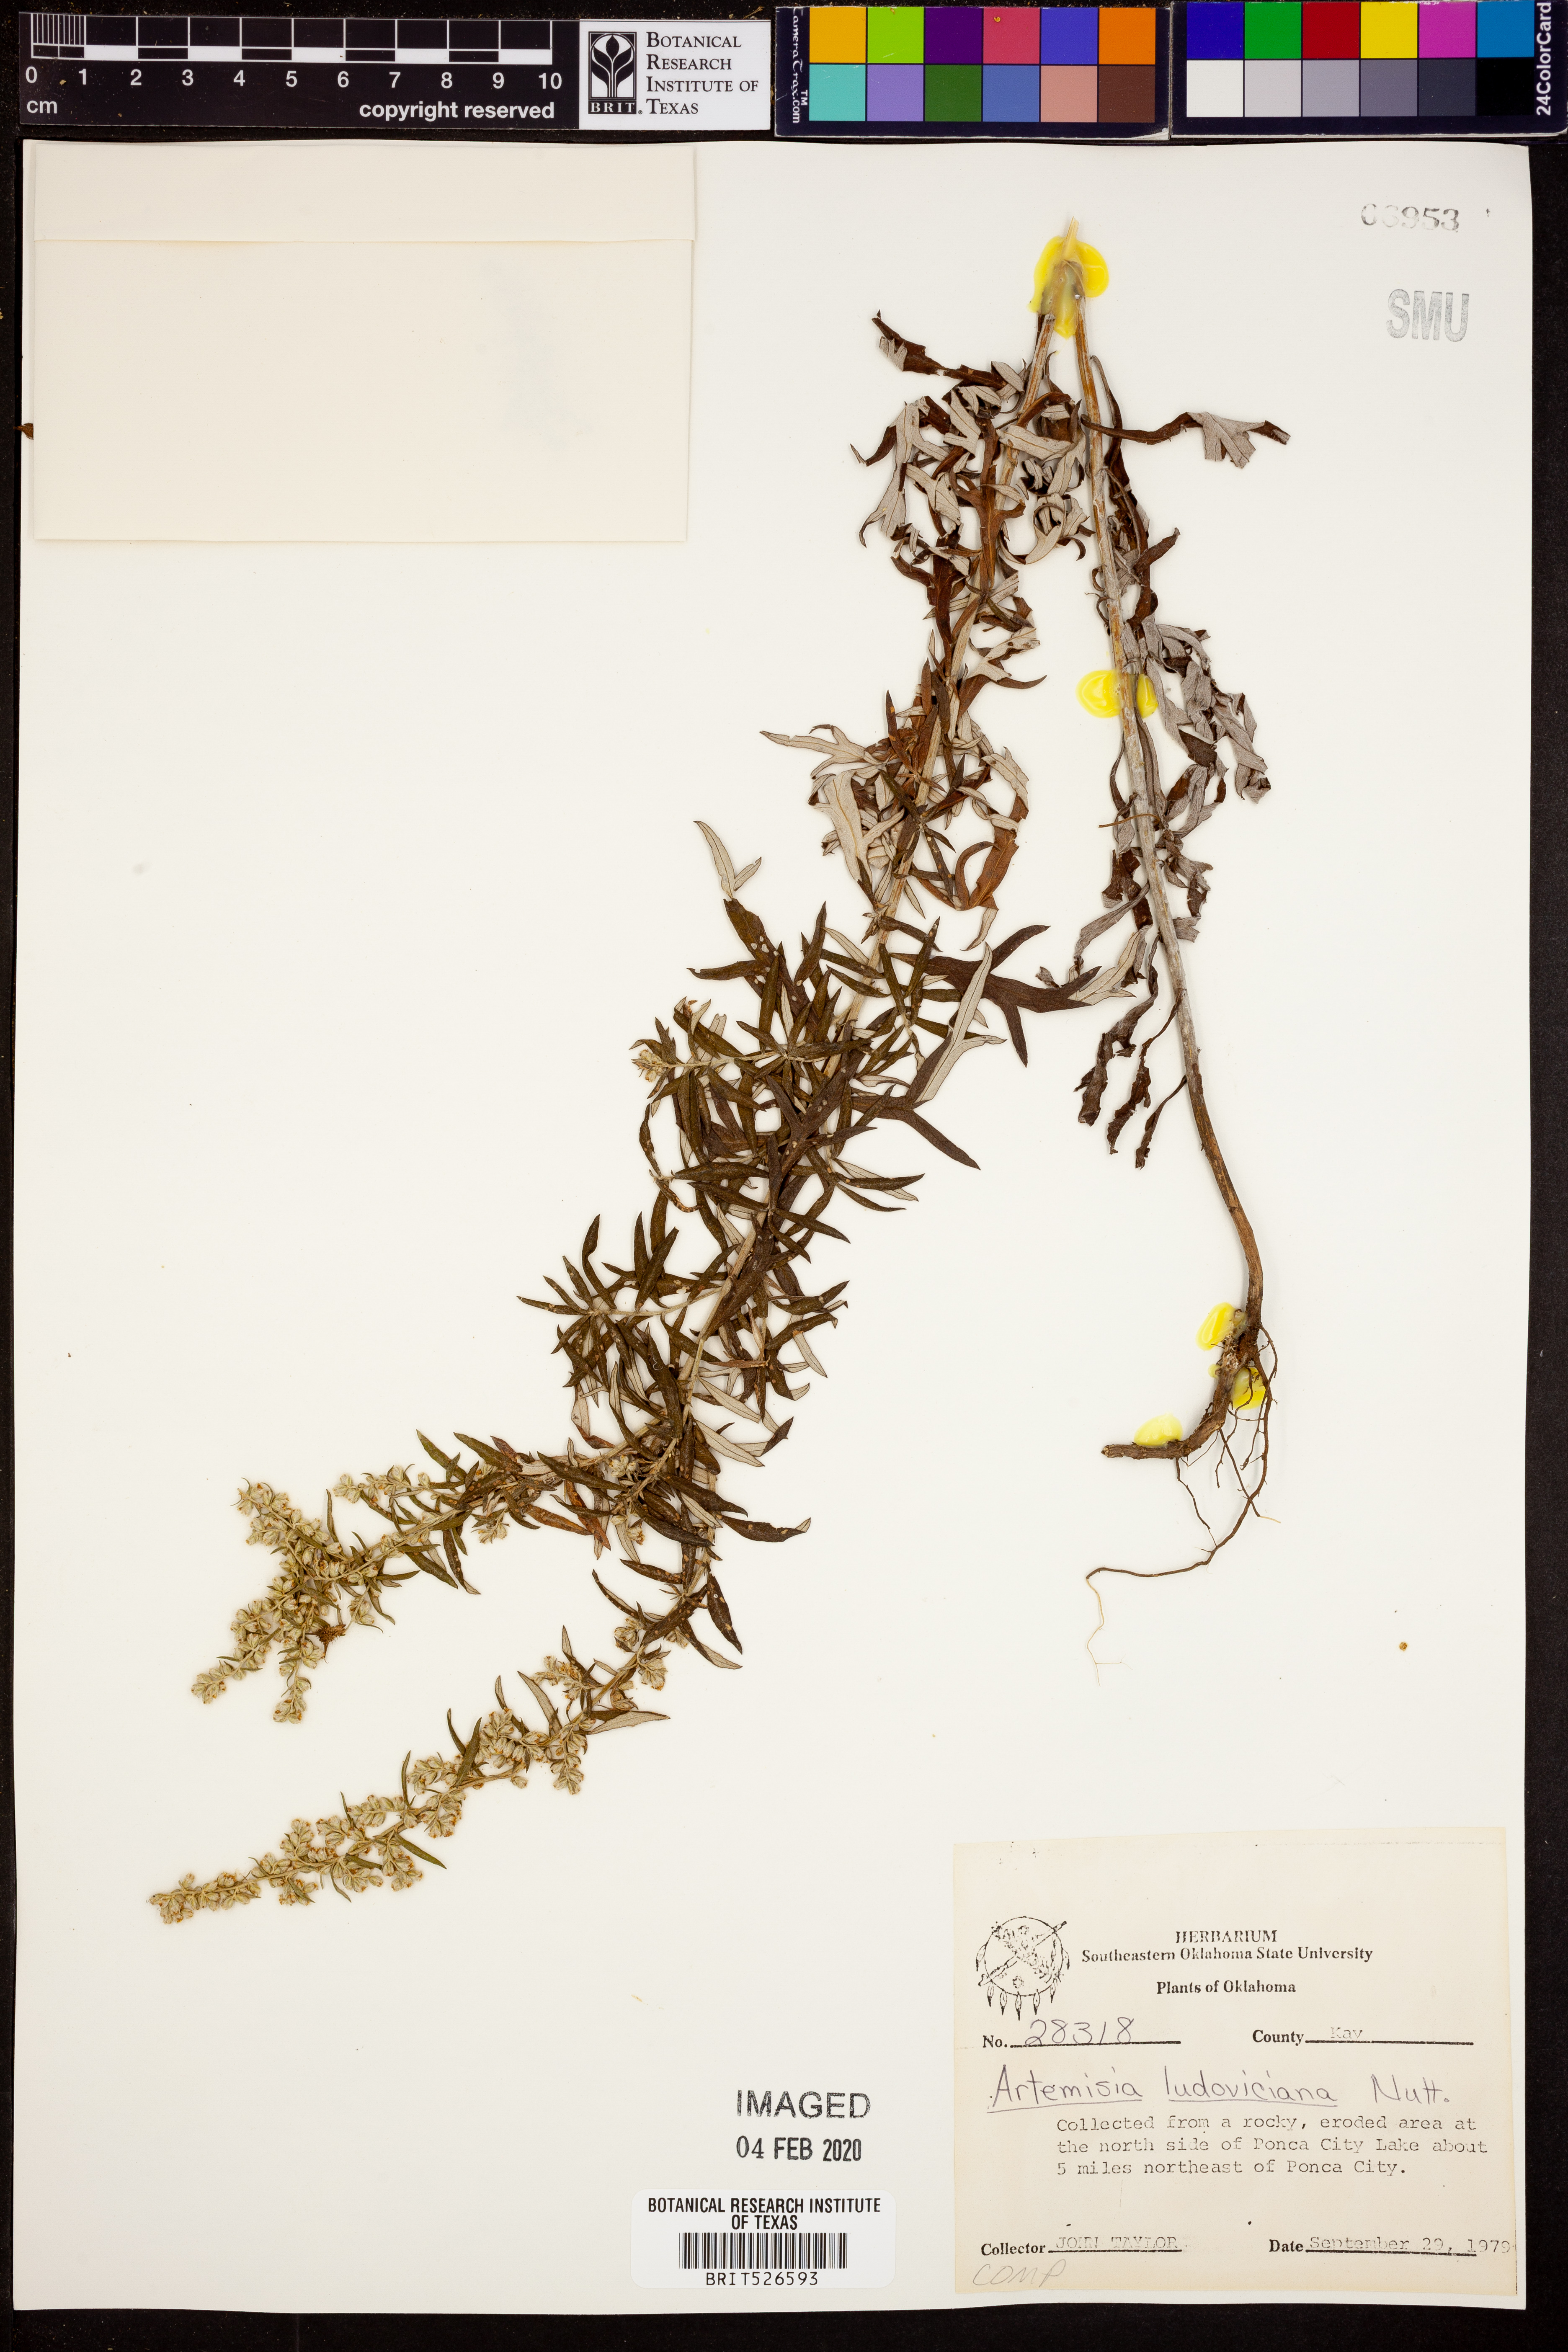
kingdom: Plantae
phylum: Tracheophyta
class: Magnoliopsida
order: Asterales
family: Asteraceae
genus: Artemisia
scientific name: Artemisia ludoviciana
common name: Western mugwort
